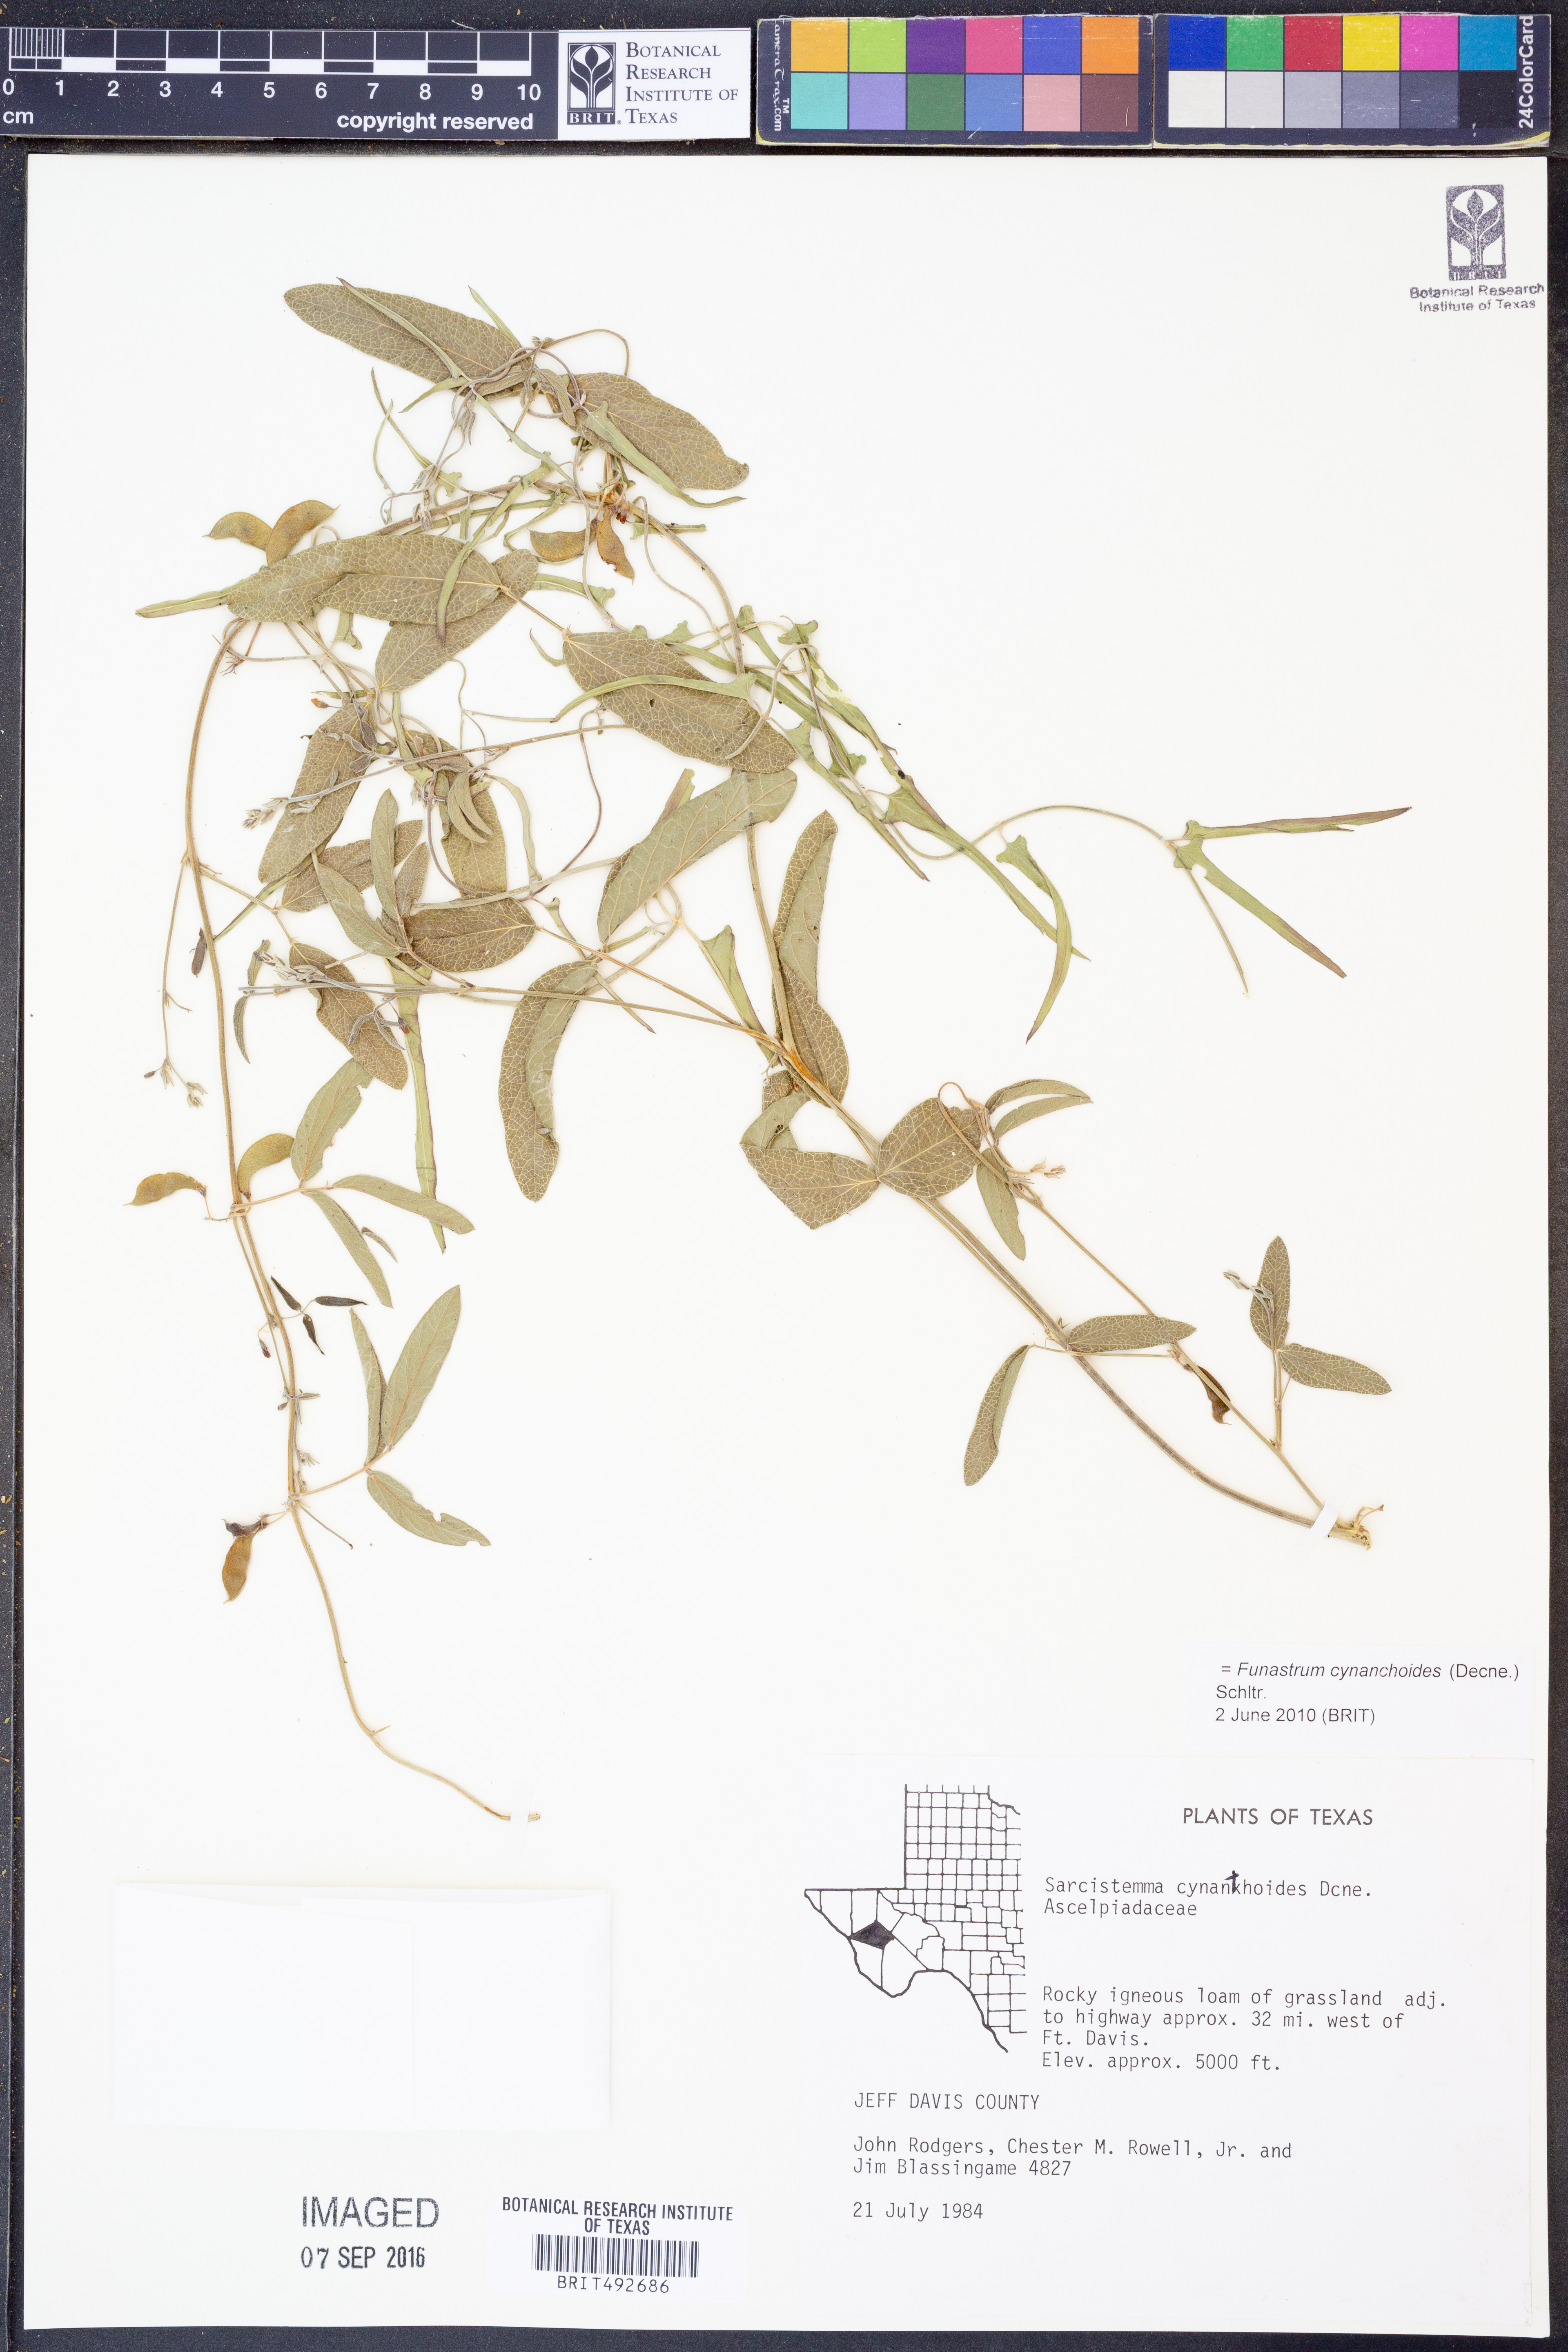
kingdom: Plantae
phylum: Tracheophyta
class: Magnoliopsida
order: Gentianales
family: Apocynaceae
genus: Funastrum
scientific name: Funastrum cynanchoides
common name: Climbing-milkweed
